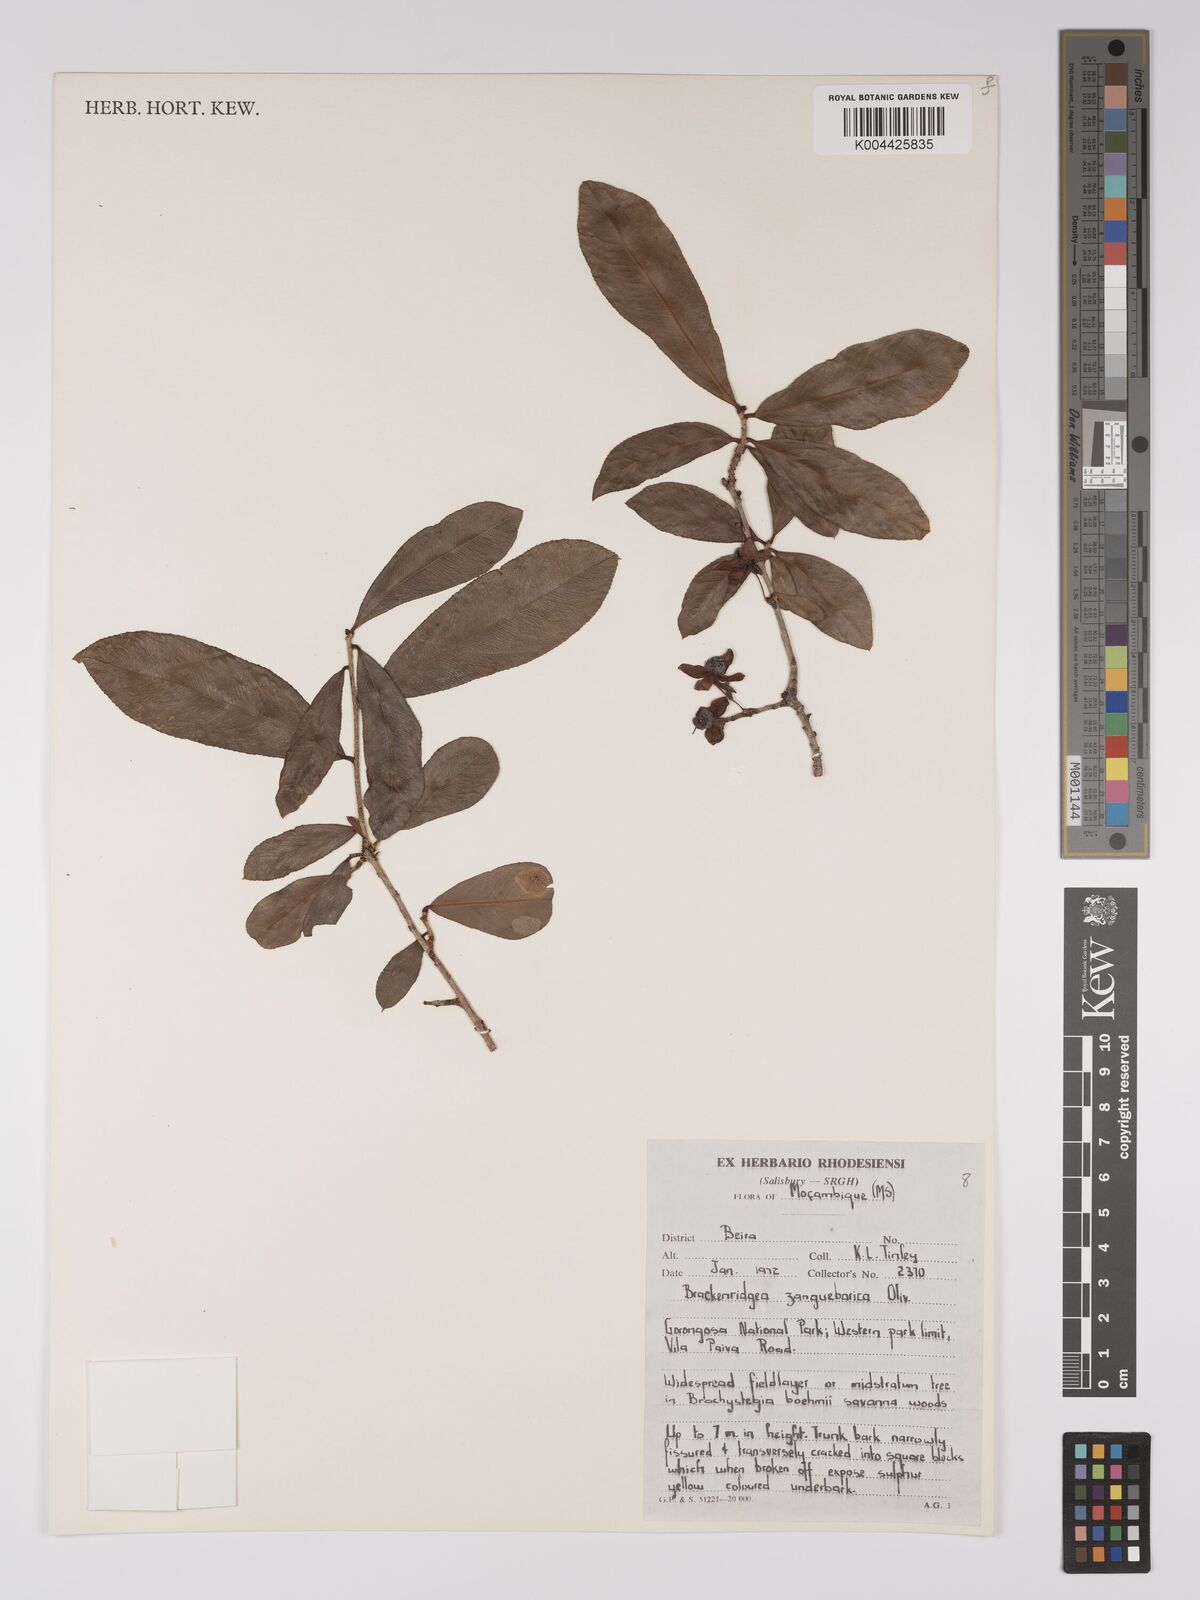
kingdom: Plantae
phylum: Tracheophyta
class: Magnoliopsida
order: Malpighiales
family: Ochnaceae
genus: Brackenridgea
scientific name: Brackenridgea zanguebarica
